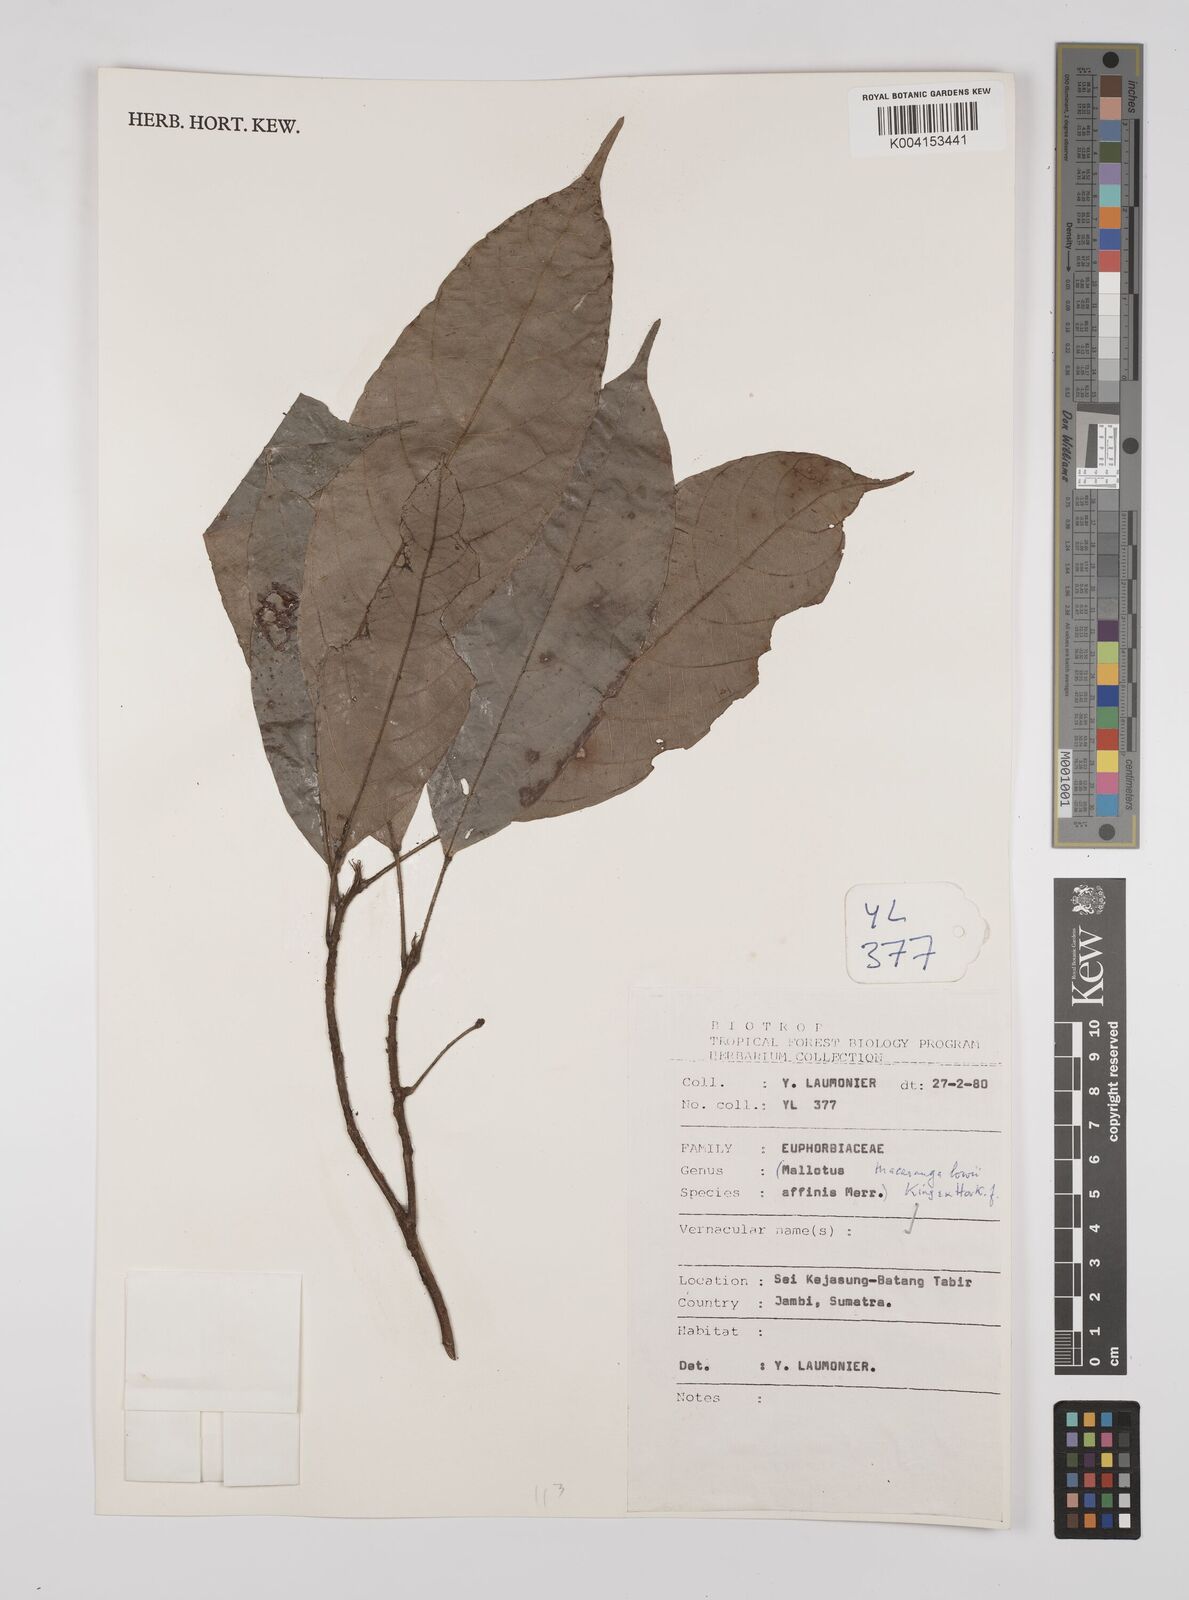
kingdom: Plantae
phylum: Tracheophyta
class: Magnoliopsida
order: Malpighiales
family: Euphorbiaceae
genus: Macaranga
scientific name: Macaranga lowii
